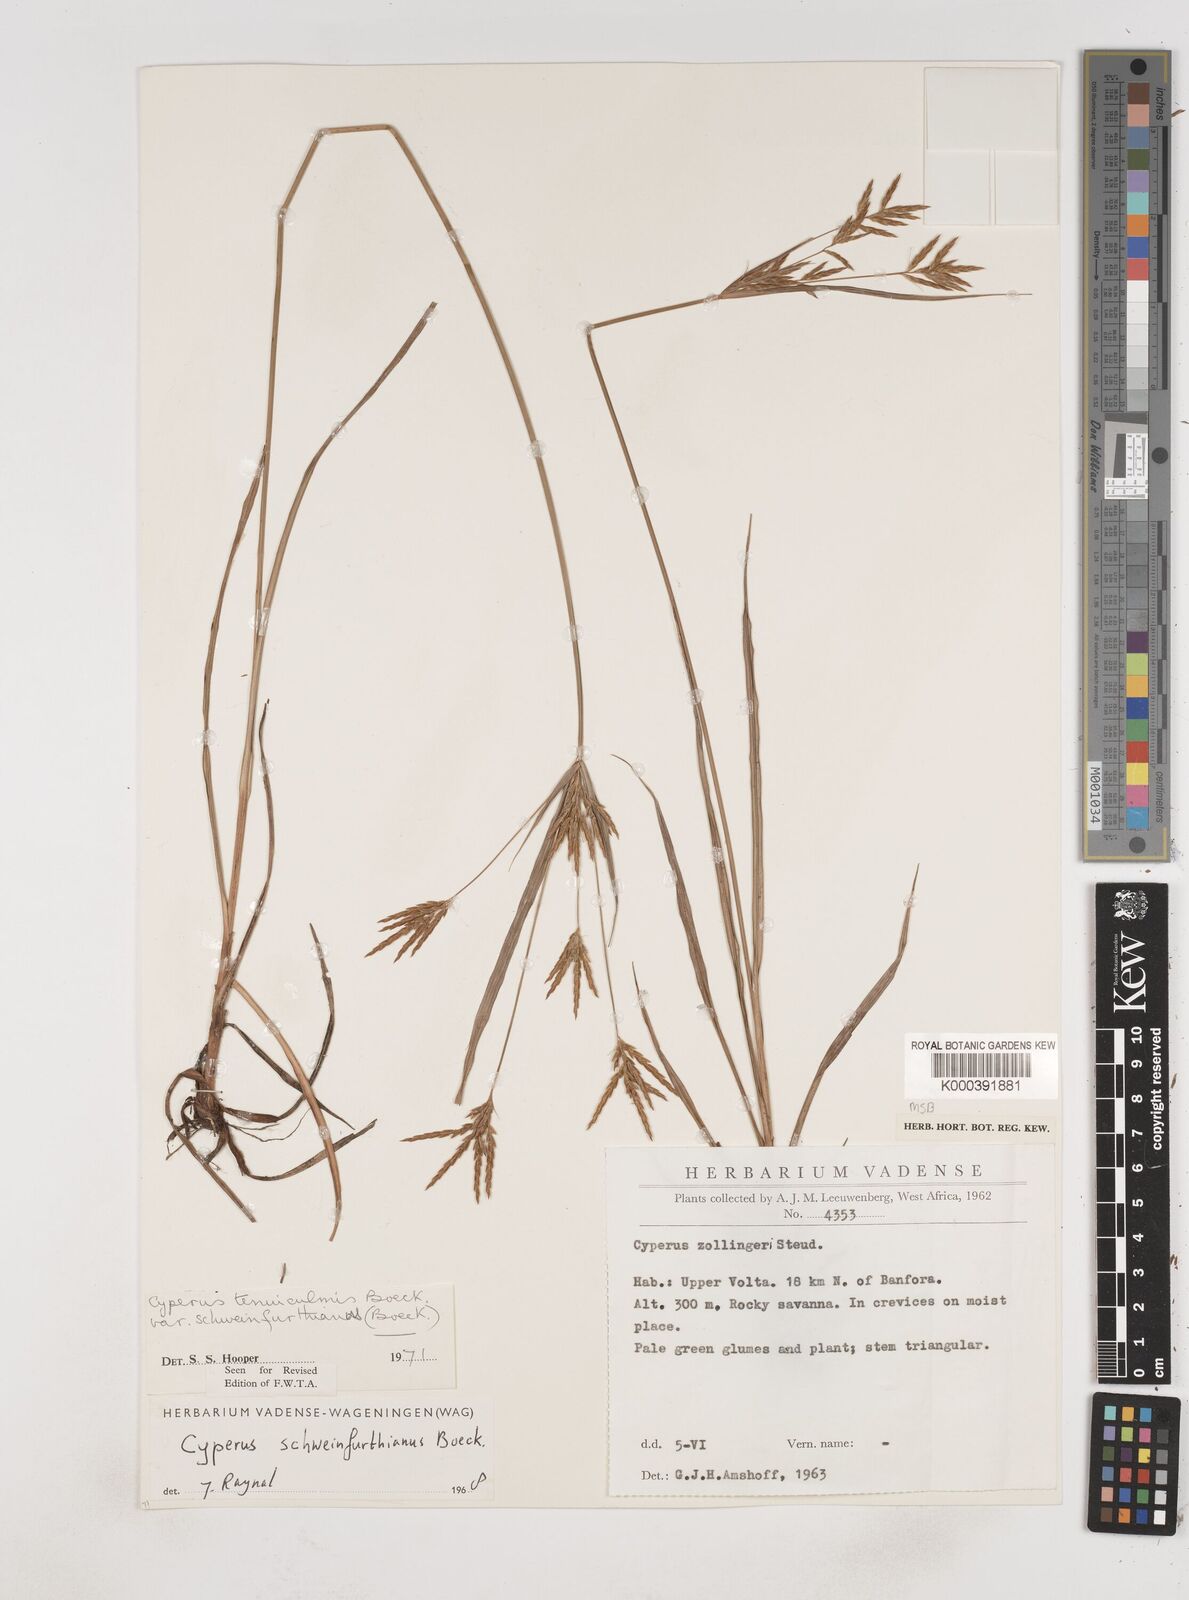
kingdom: Plantae
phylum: Tracheophyta
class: Liliopsida
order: Poales
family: Cyperaceae
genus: Cyperus
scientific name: Cyperus tenuiculmis
